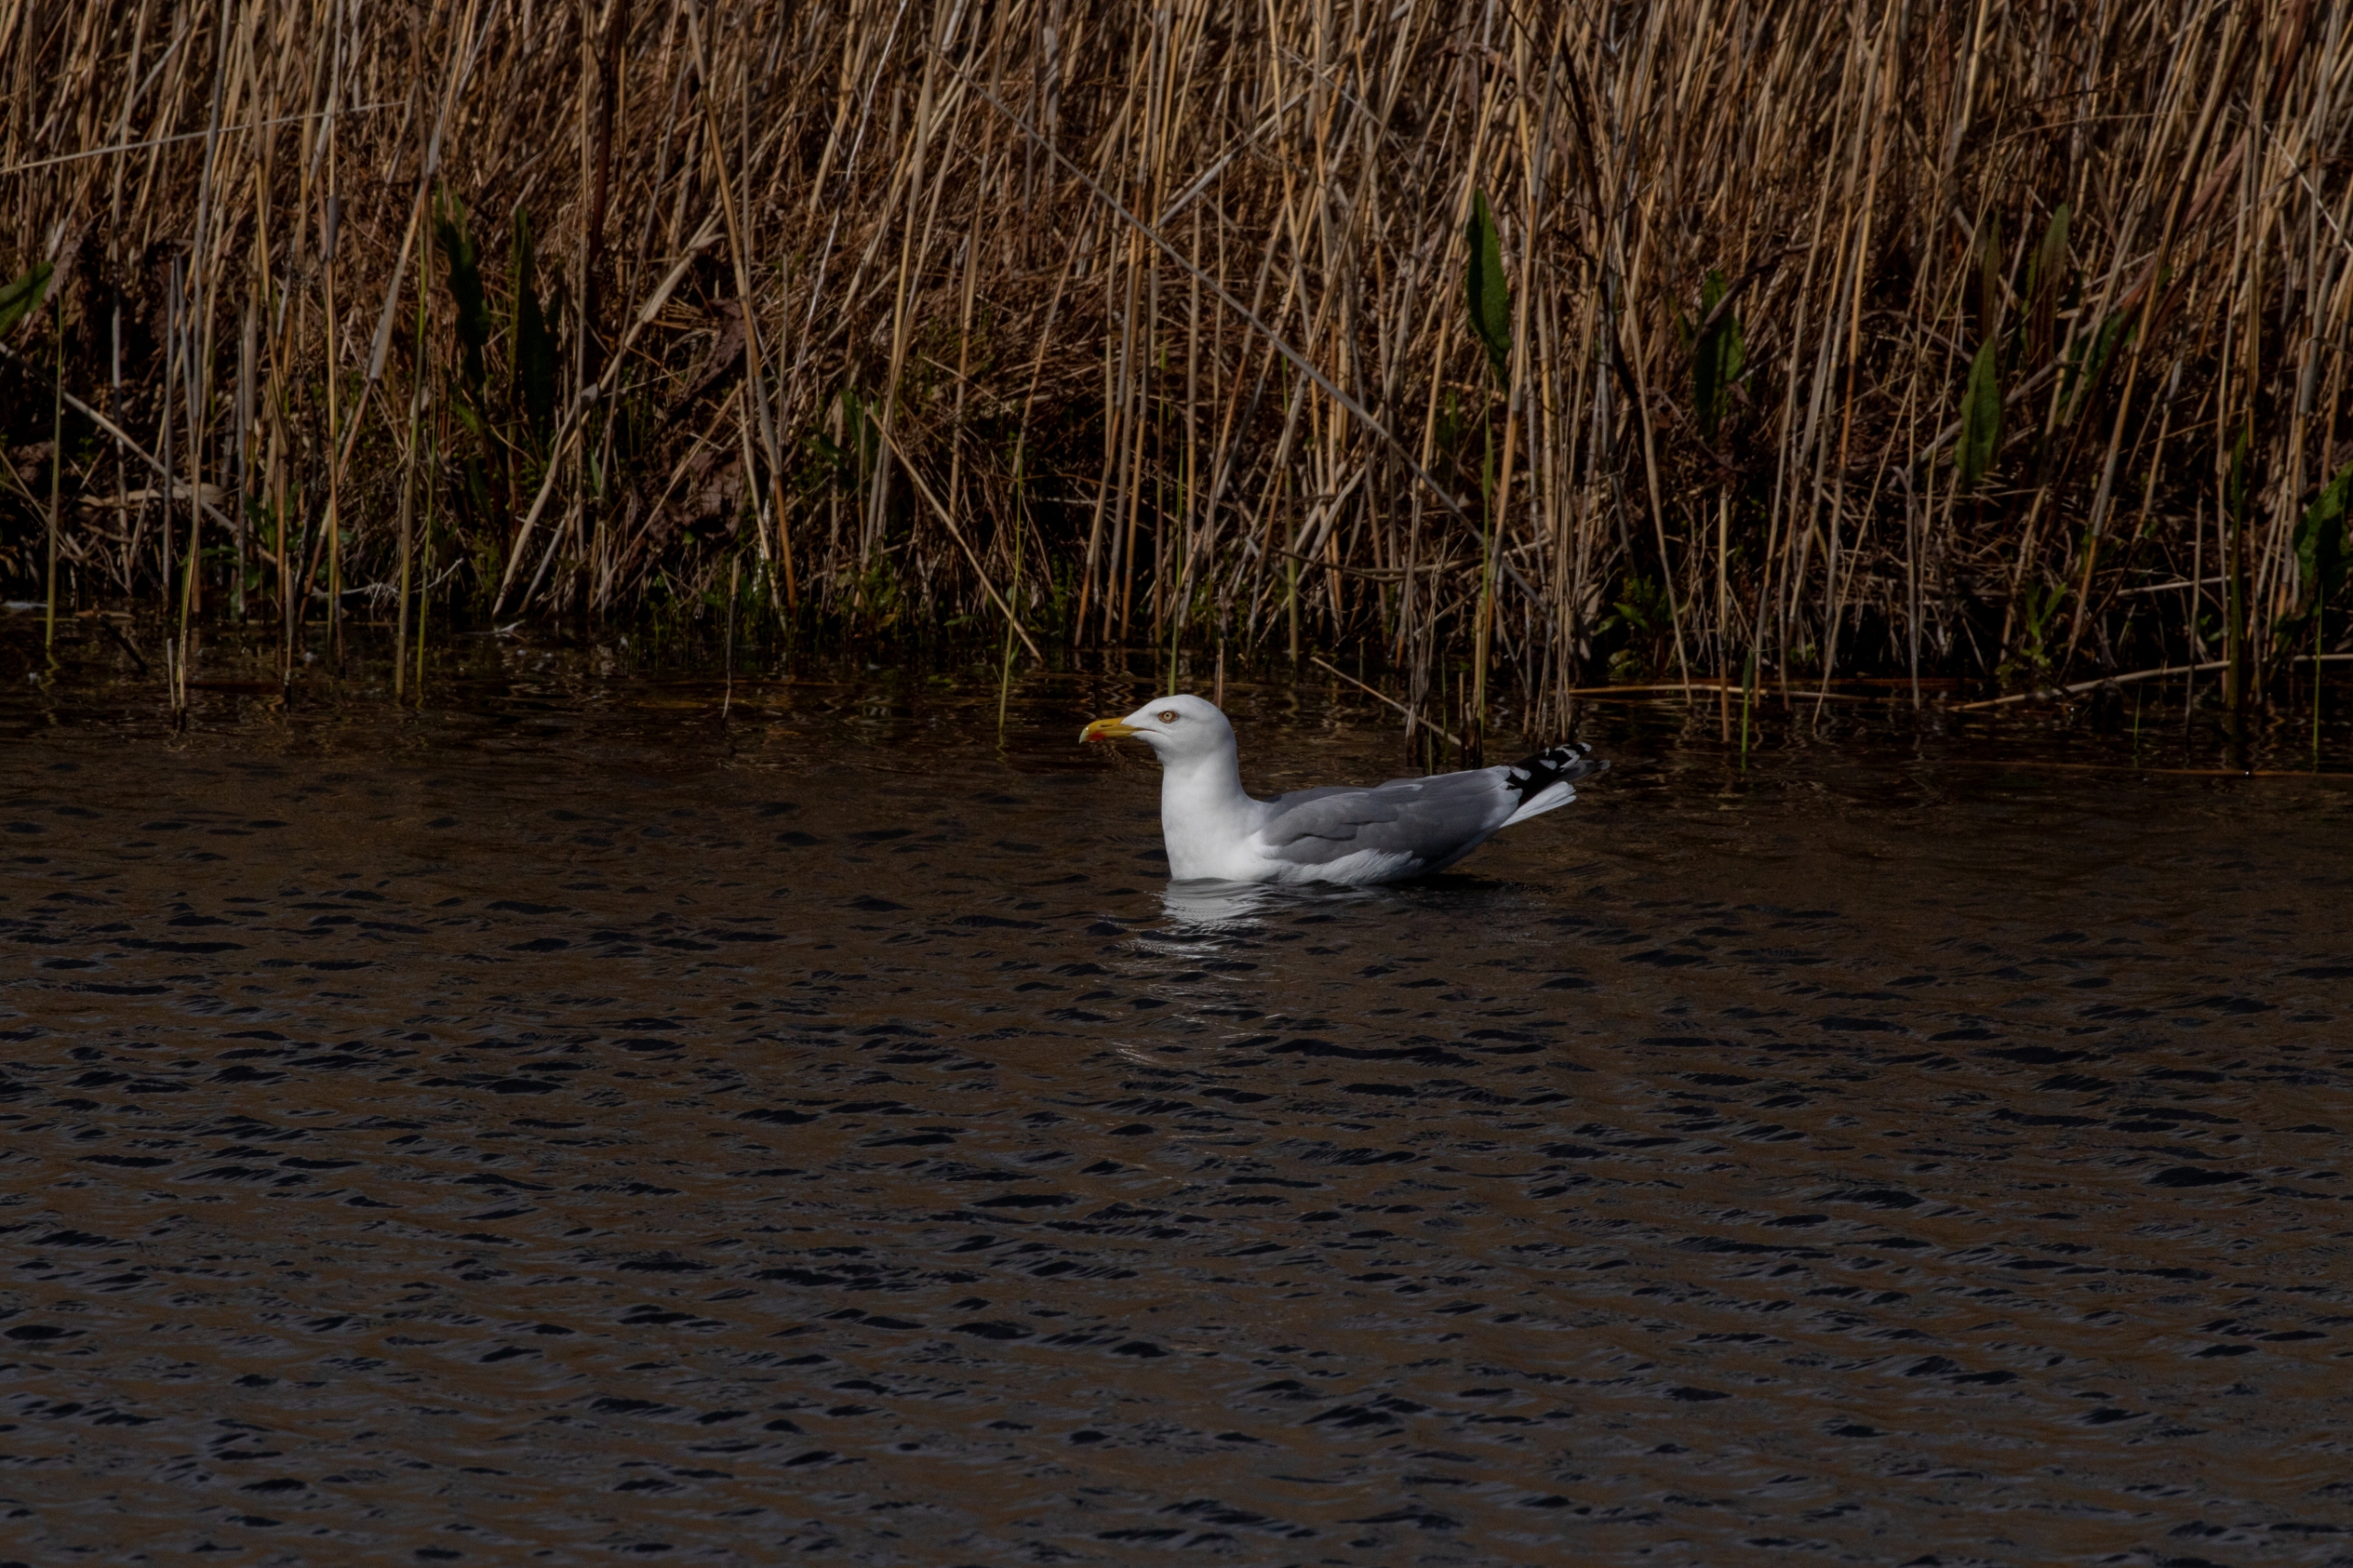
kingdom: Animalia
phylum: Chordata
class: Aves
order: Charadriiformes
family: Laridae
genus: Larus
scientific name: Larus argentatus
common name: Sølvmåge
